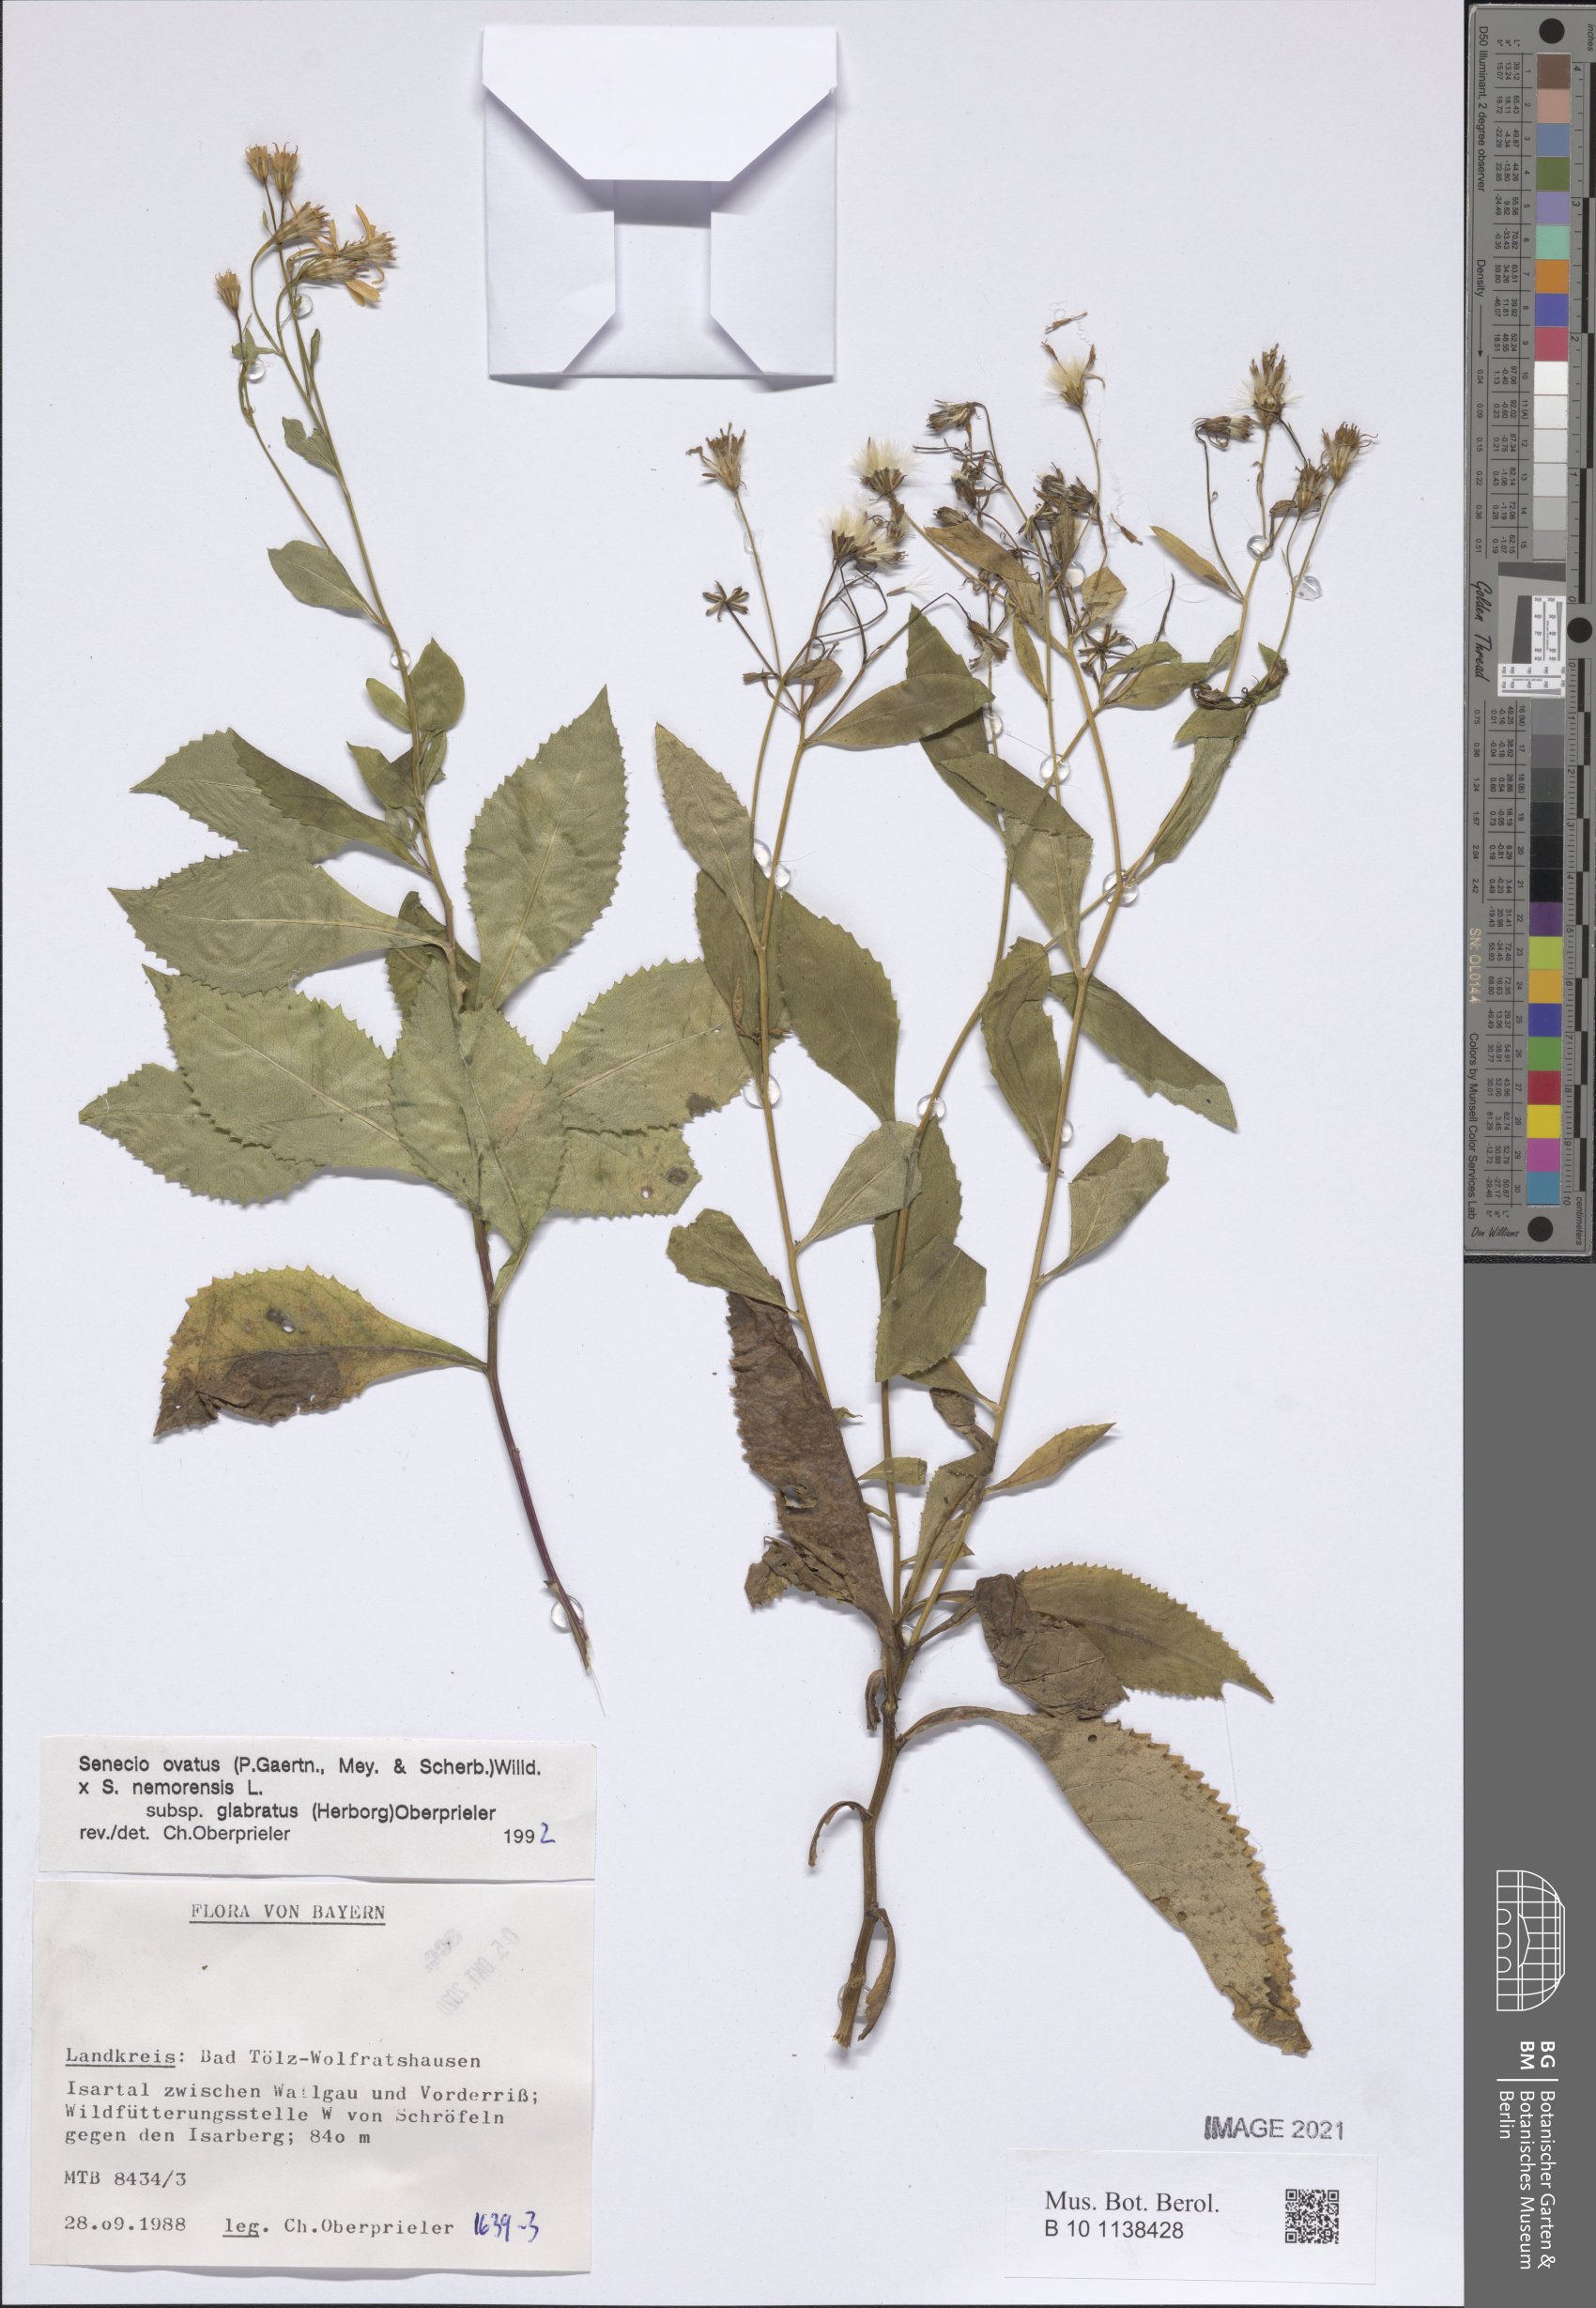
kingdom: Plantae
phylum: Tracheophyta
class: Magnoliopsida
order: Asterales
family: Asteraceae
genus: Senecio
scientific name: Senecio ovatus
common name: Wood ragwort
